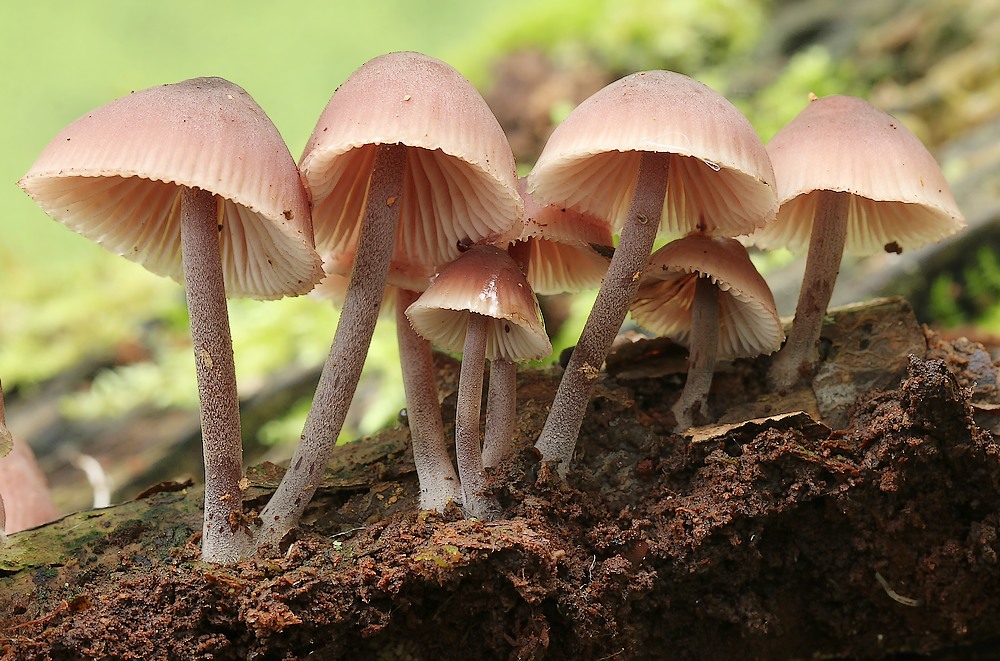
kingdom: Fungi
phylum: Basidiomycota
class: Agaricomycetes
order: Agaricales
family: Mycenaceae
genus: Mycena
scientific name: Mycena haematopus
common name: blødende huesvamp
